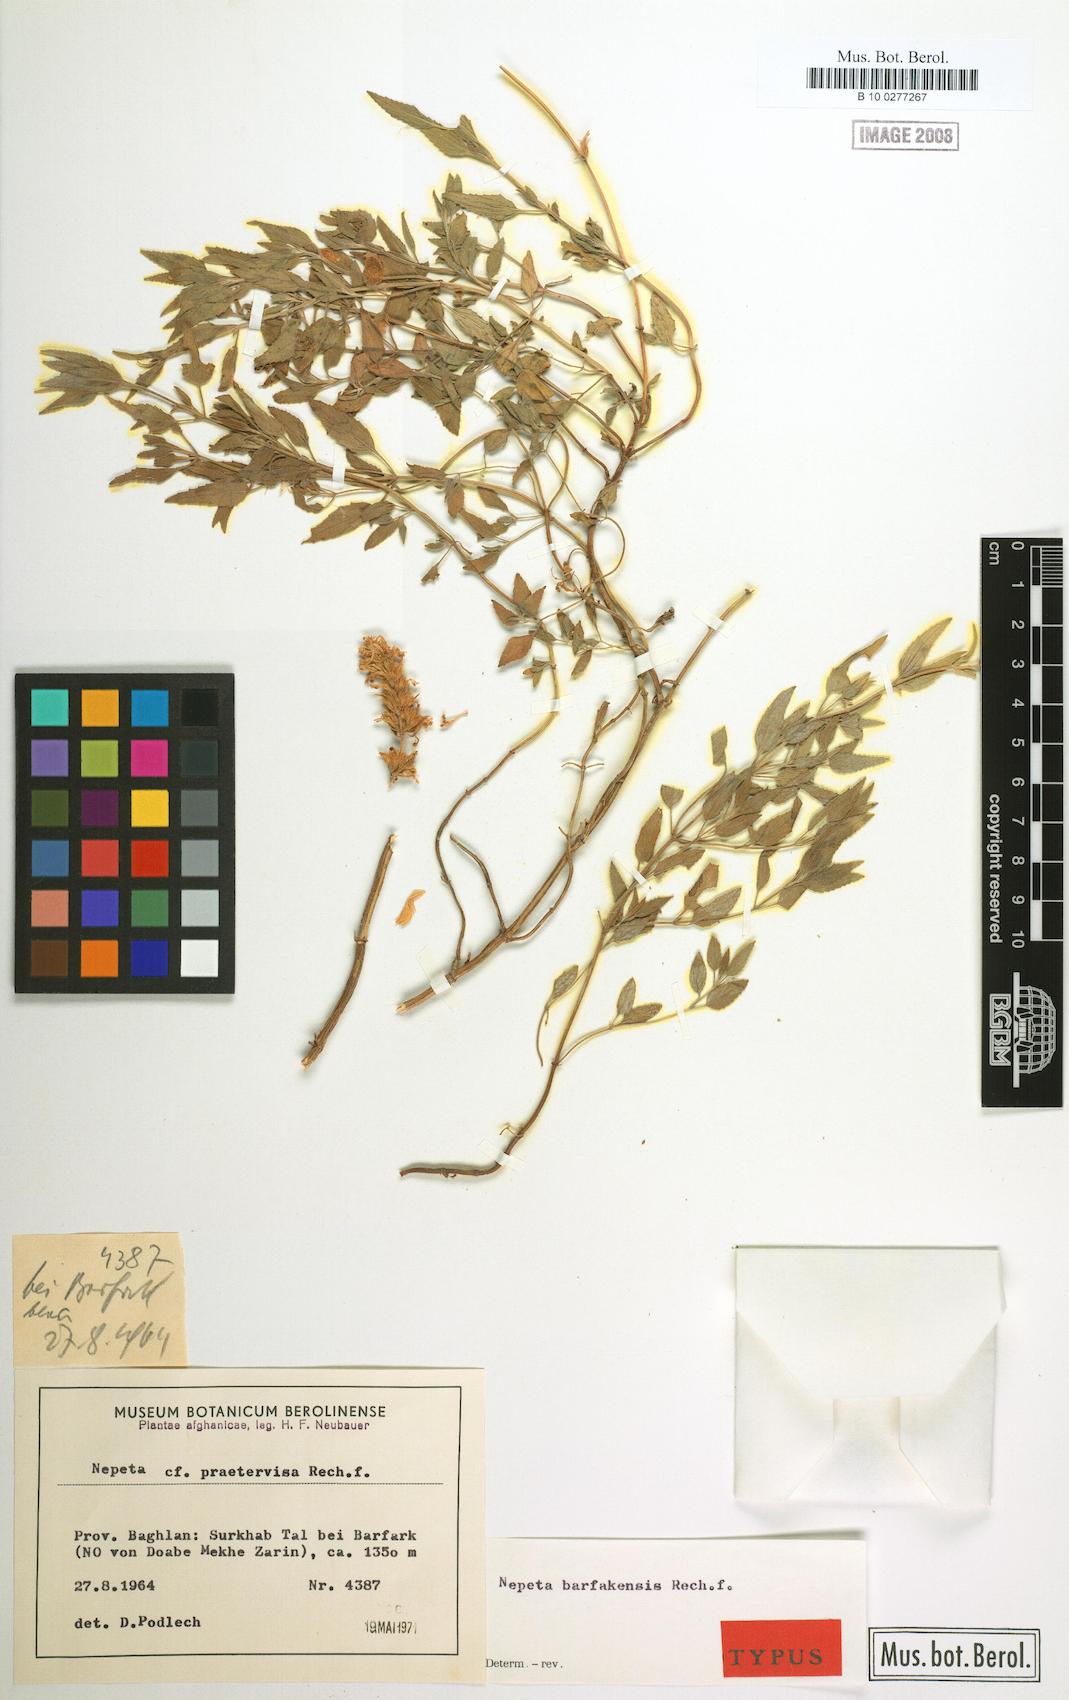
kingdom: Plantae
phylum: Tracheophyta
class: Magnoliopsida
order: Lamiales
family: Lamiaceae
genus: Nepeta
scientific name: Nepeta barfakensis
